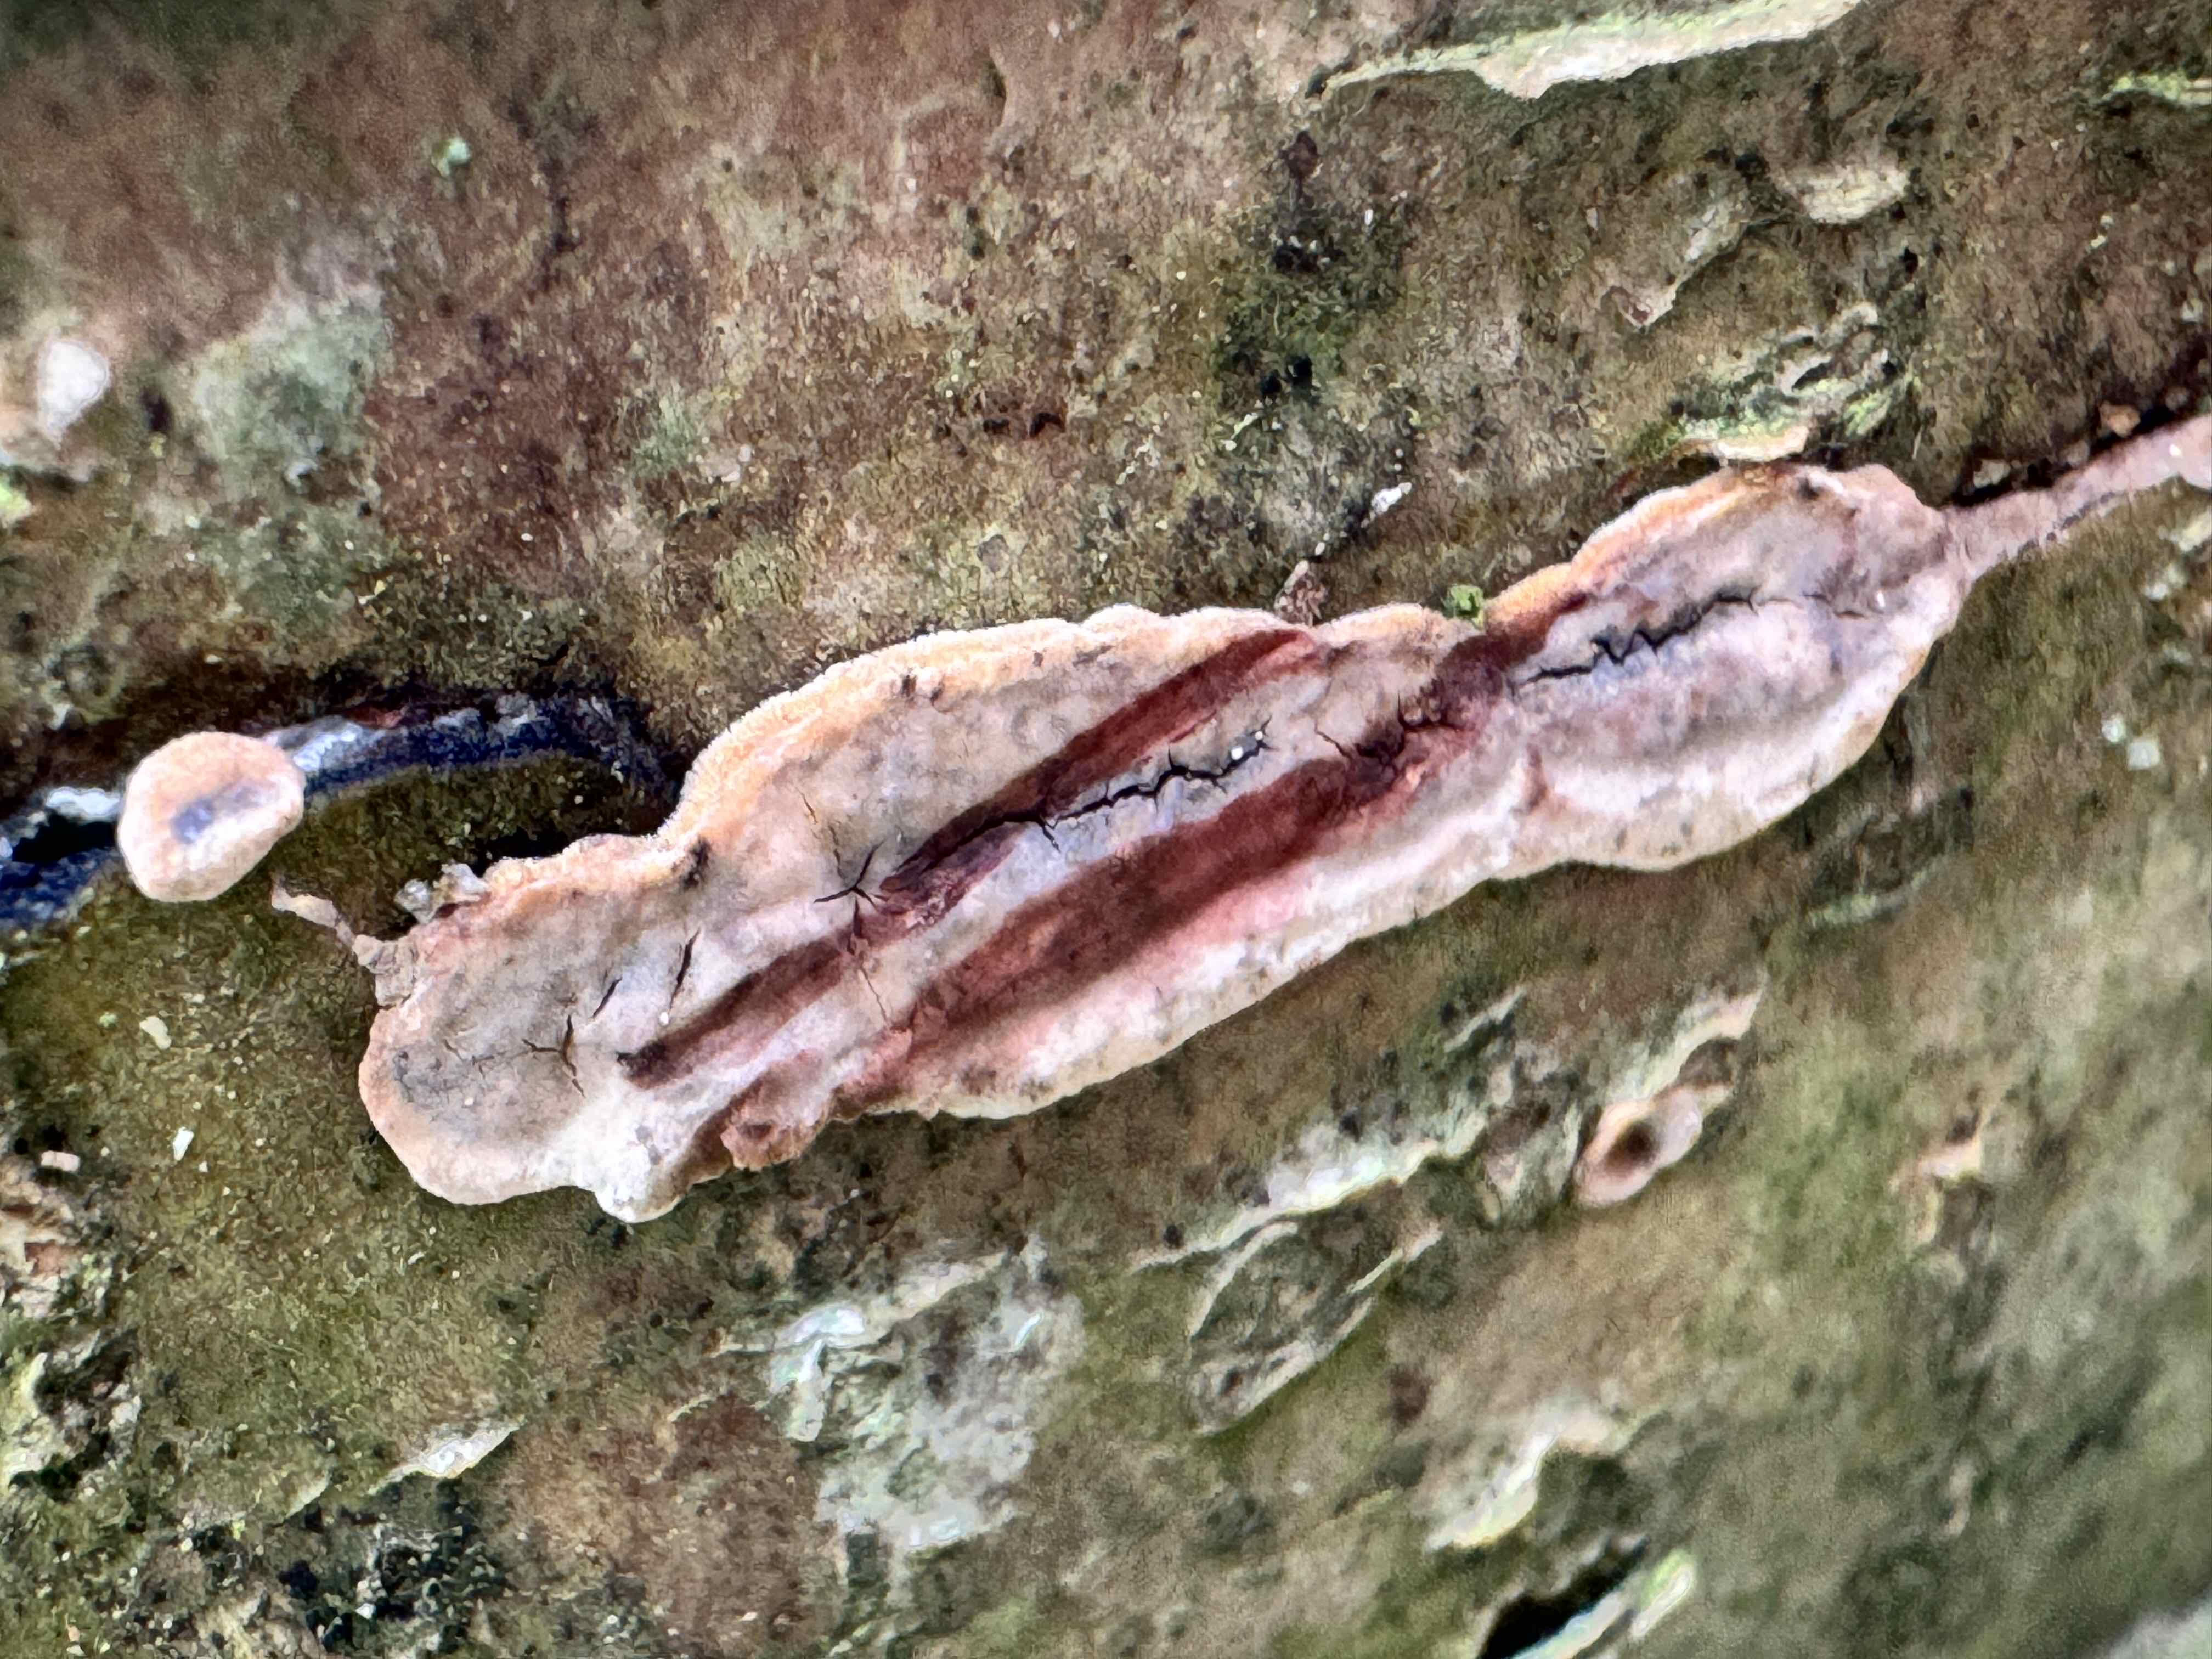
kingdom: Fungi
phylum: Basidiomycota
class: Agaricomycetes
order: Russulales
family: Stereaceae
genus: Stereum
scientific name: Stereum rugosum
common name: rynket lædersvamp
